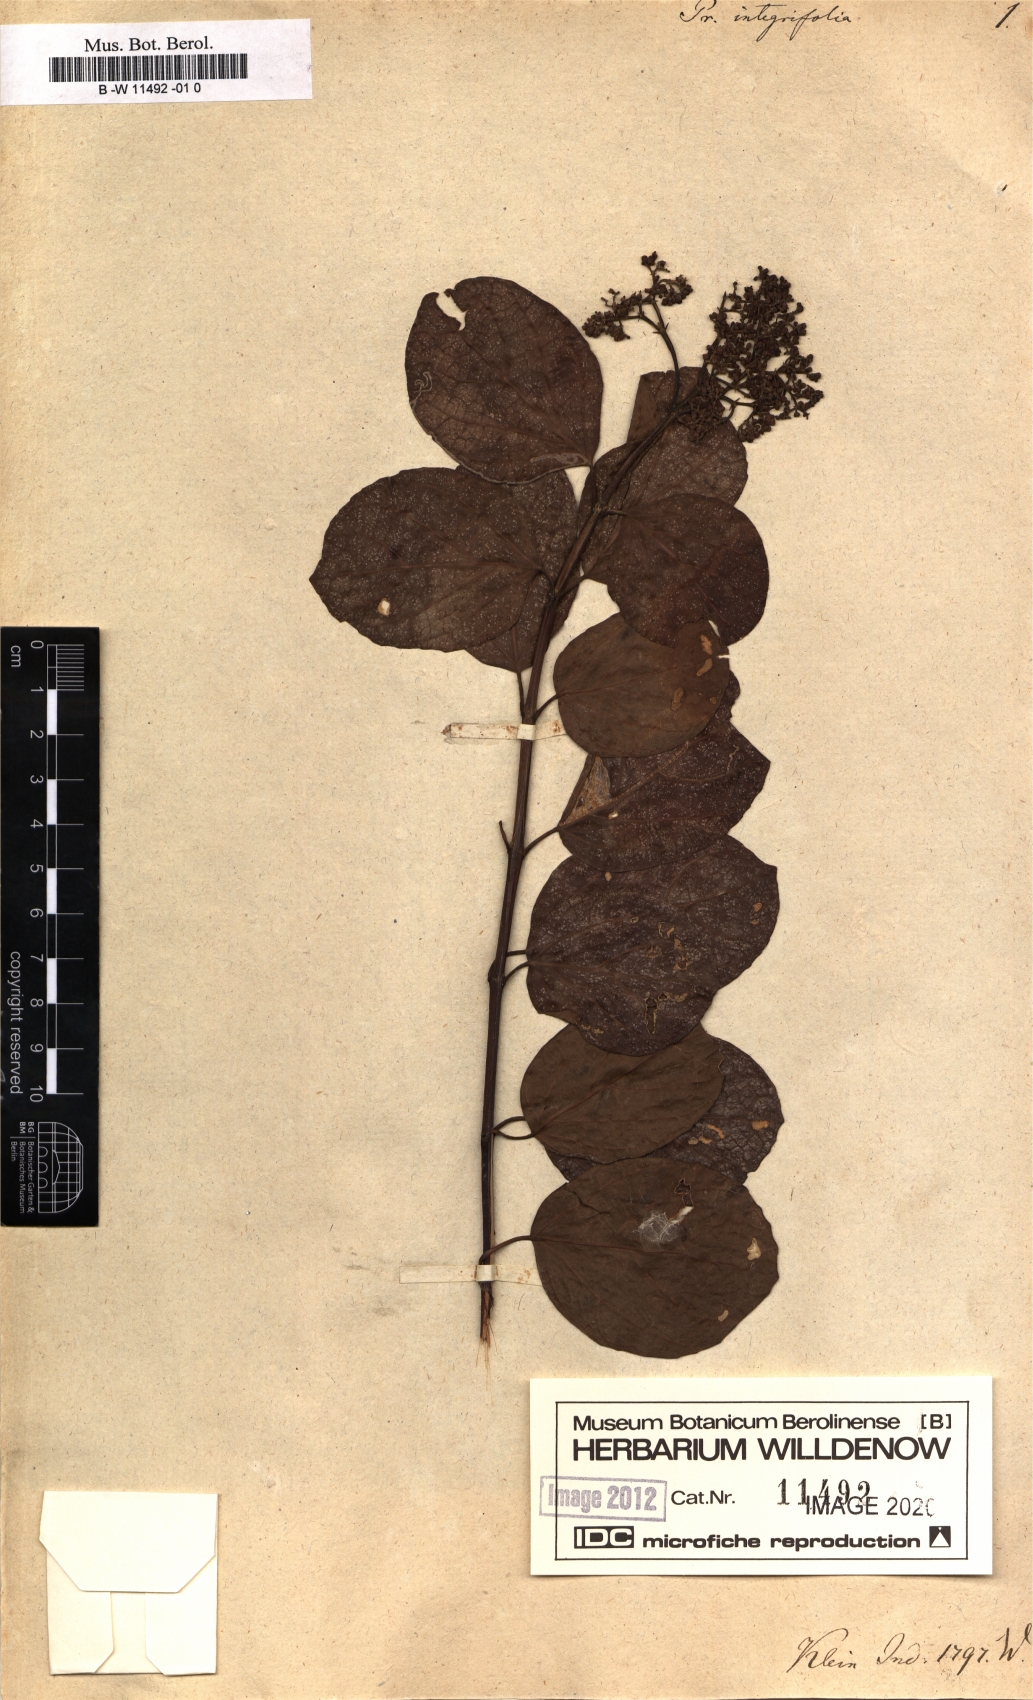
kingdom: Plantae
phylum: Tracheophyta
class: Magnoliopsida
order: Lamiales
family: Lamiaceae
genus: Premna
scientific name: Premna serratifolia
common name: Bastard guelder
